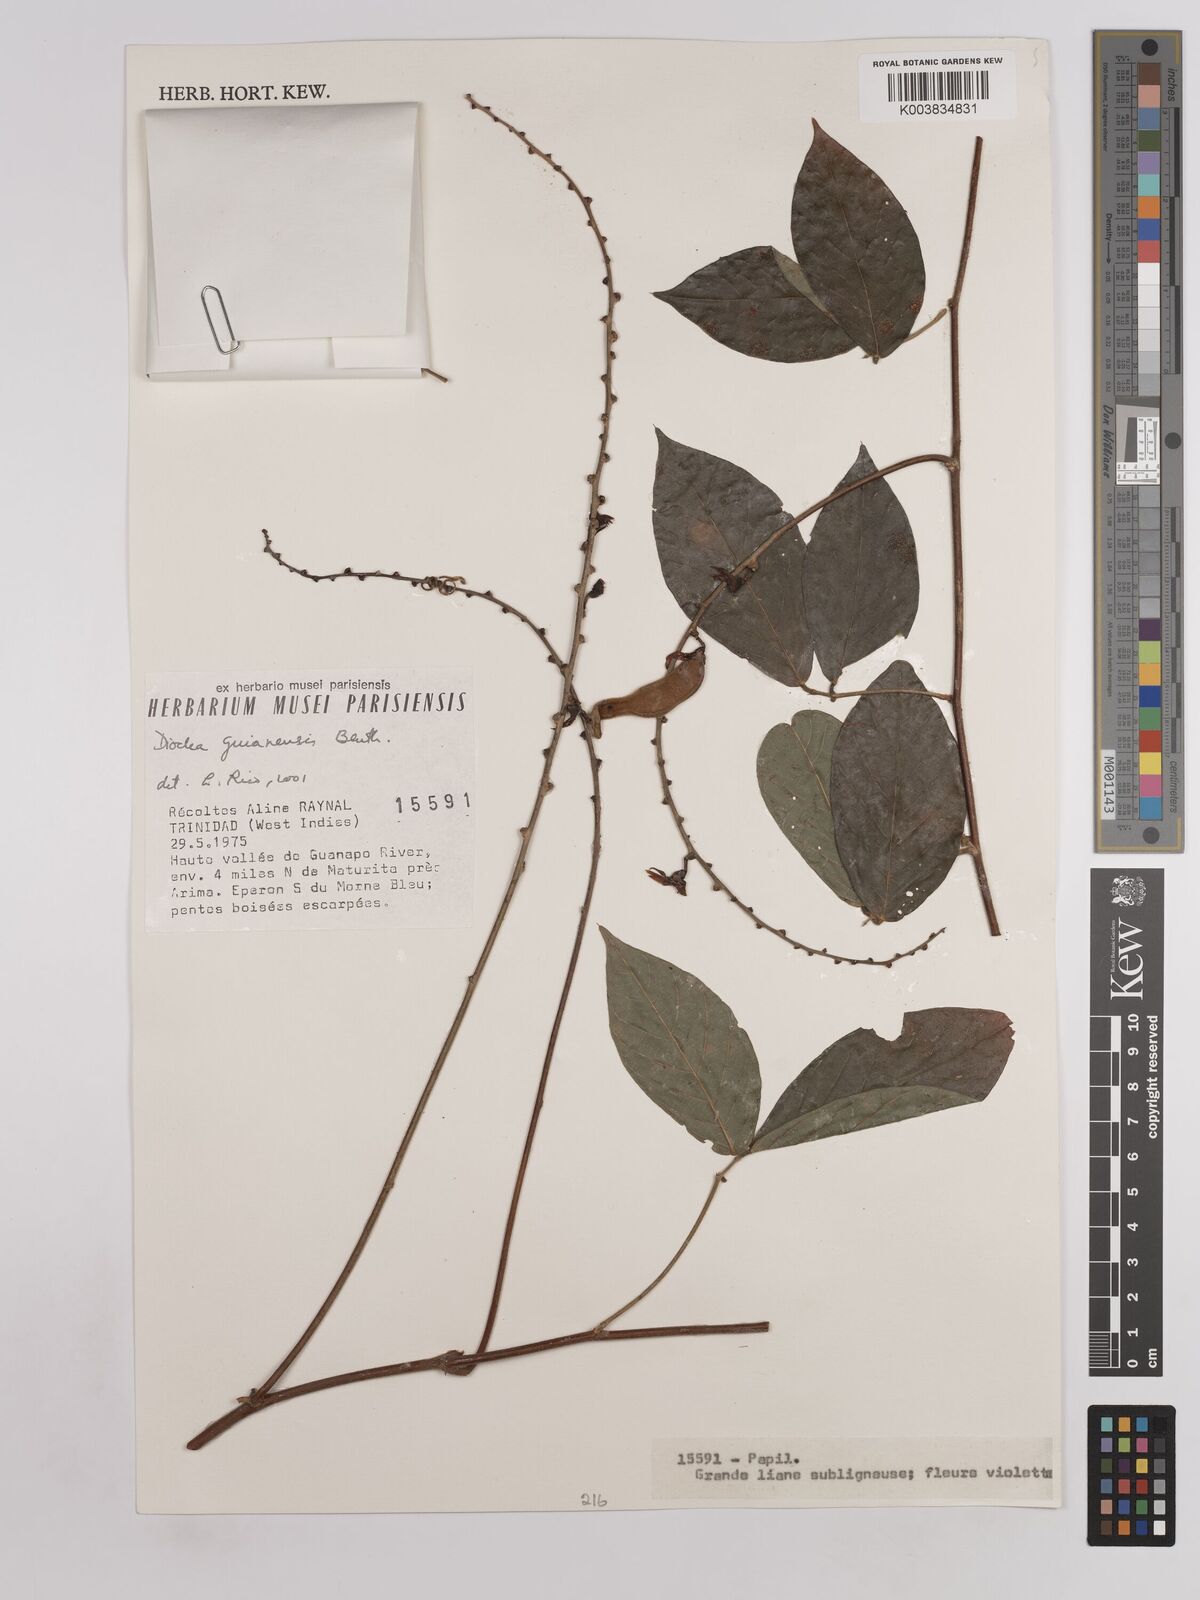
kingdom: Plantae
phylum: Tracheophyta
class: Magnoliopsida
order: Fabales
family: Fabaceae
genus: Dioclea
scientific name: Dioclea guianensis
